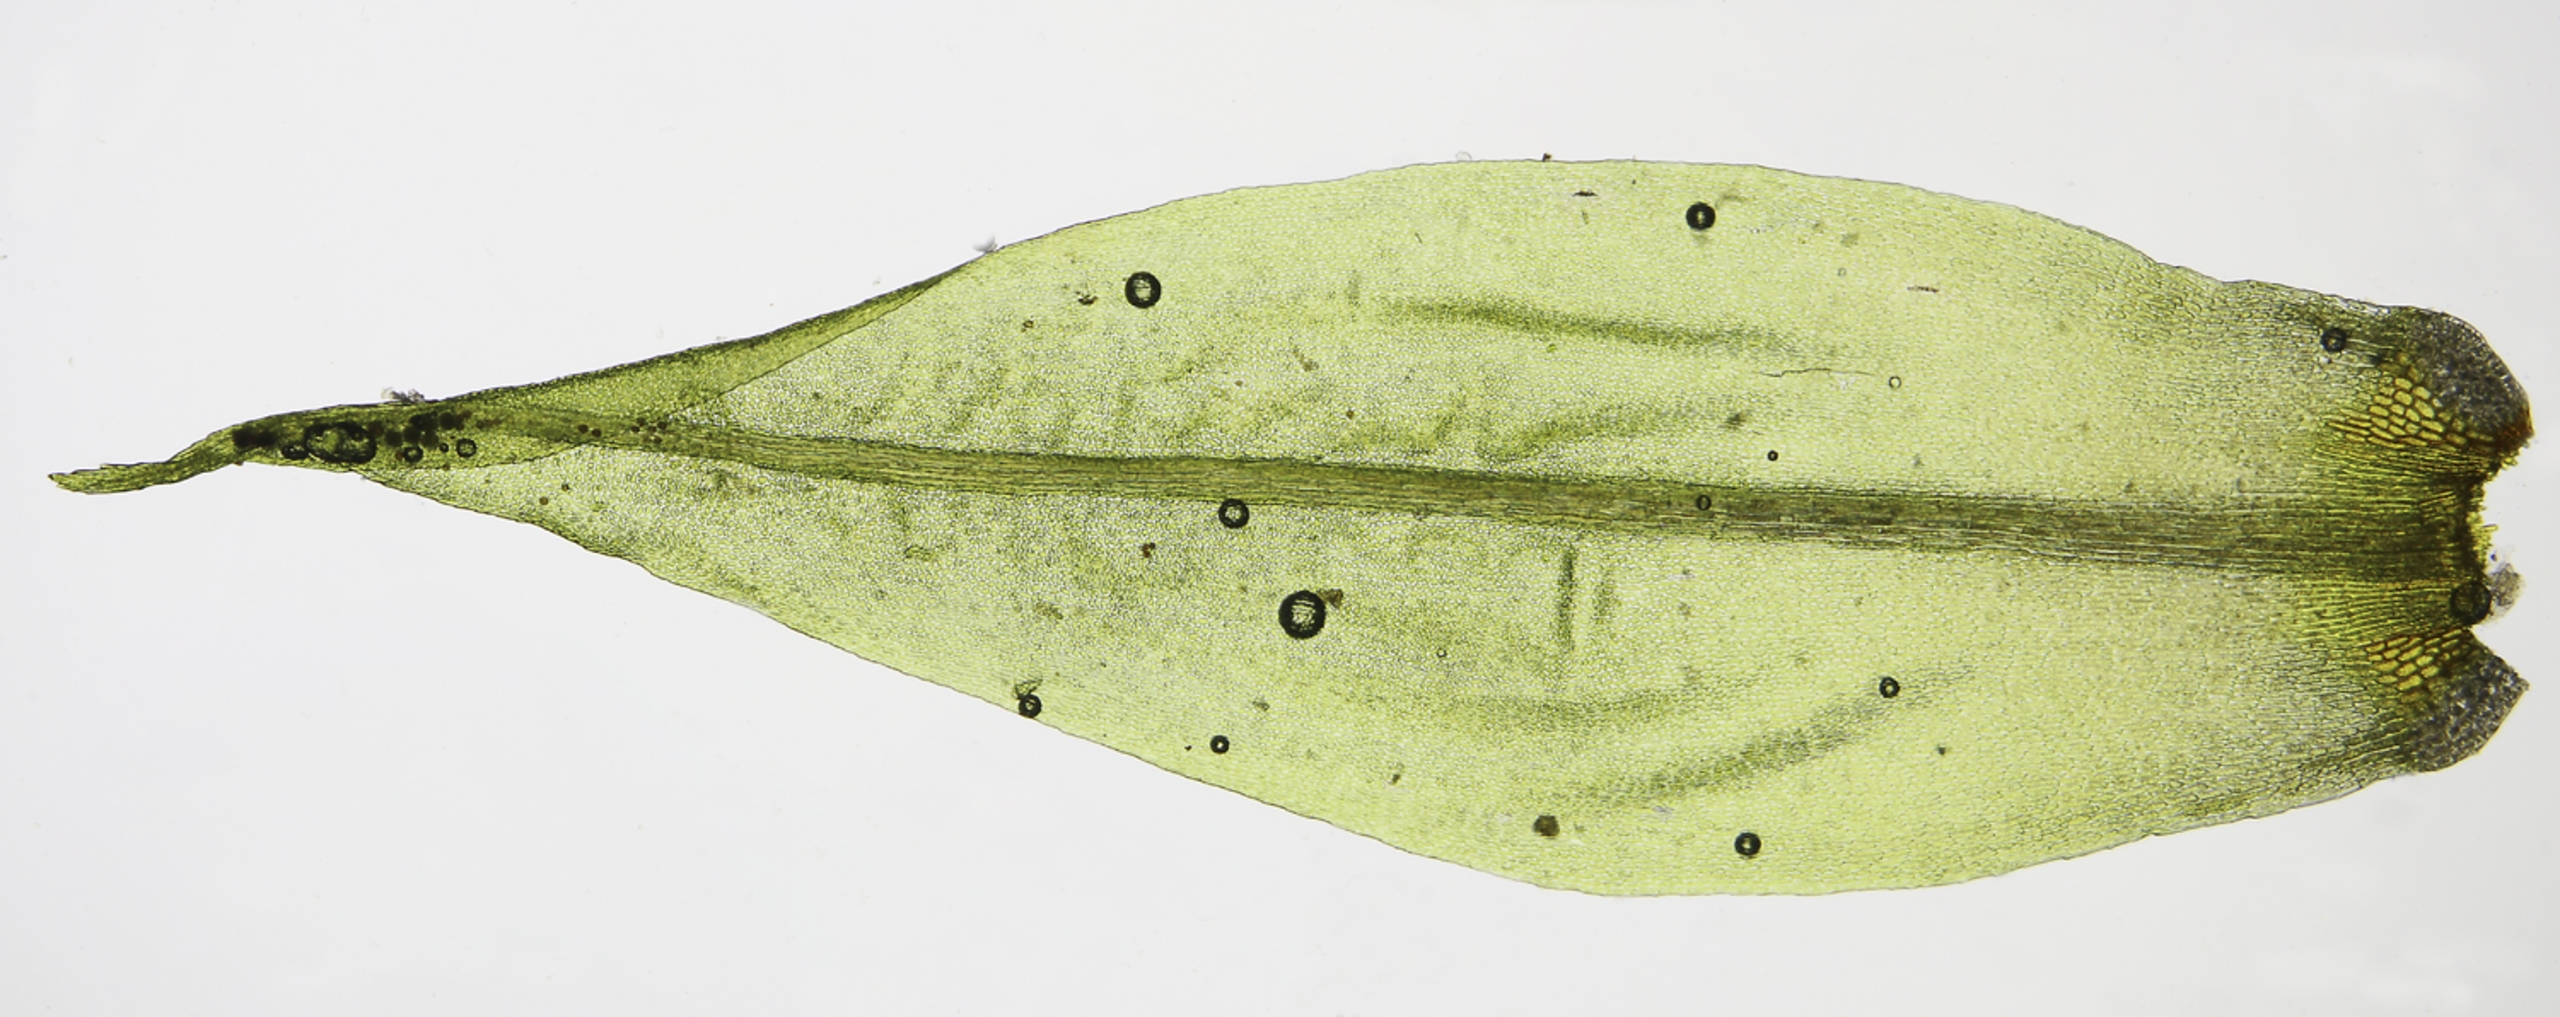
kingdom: Plantae
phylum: Bryophyta
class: Bryopsida
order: Dicranales
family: Dicranaceae
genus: Dicranum
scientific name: Dicranum spurium
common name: Hede-kløvtand
